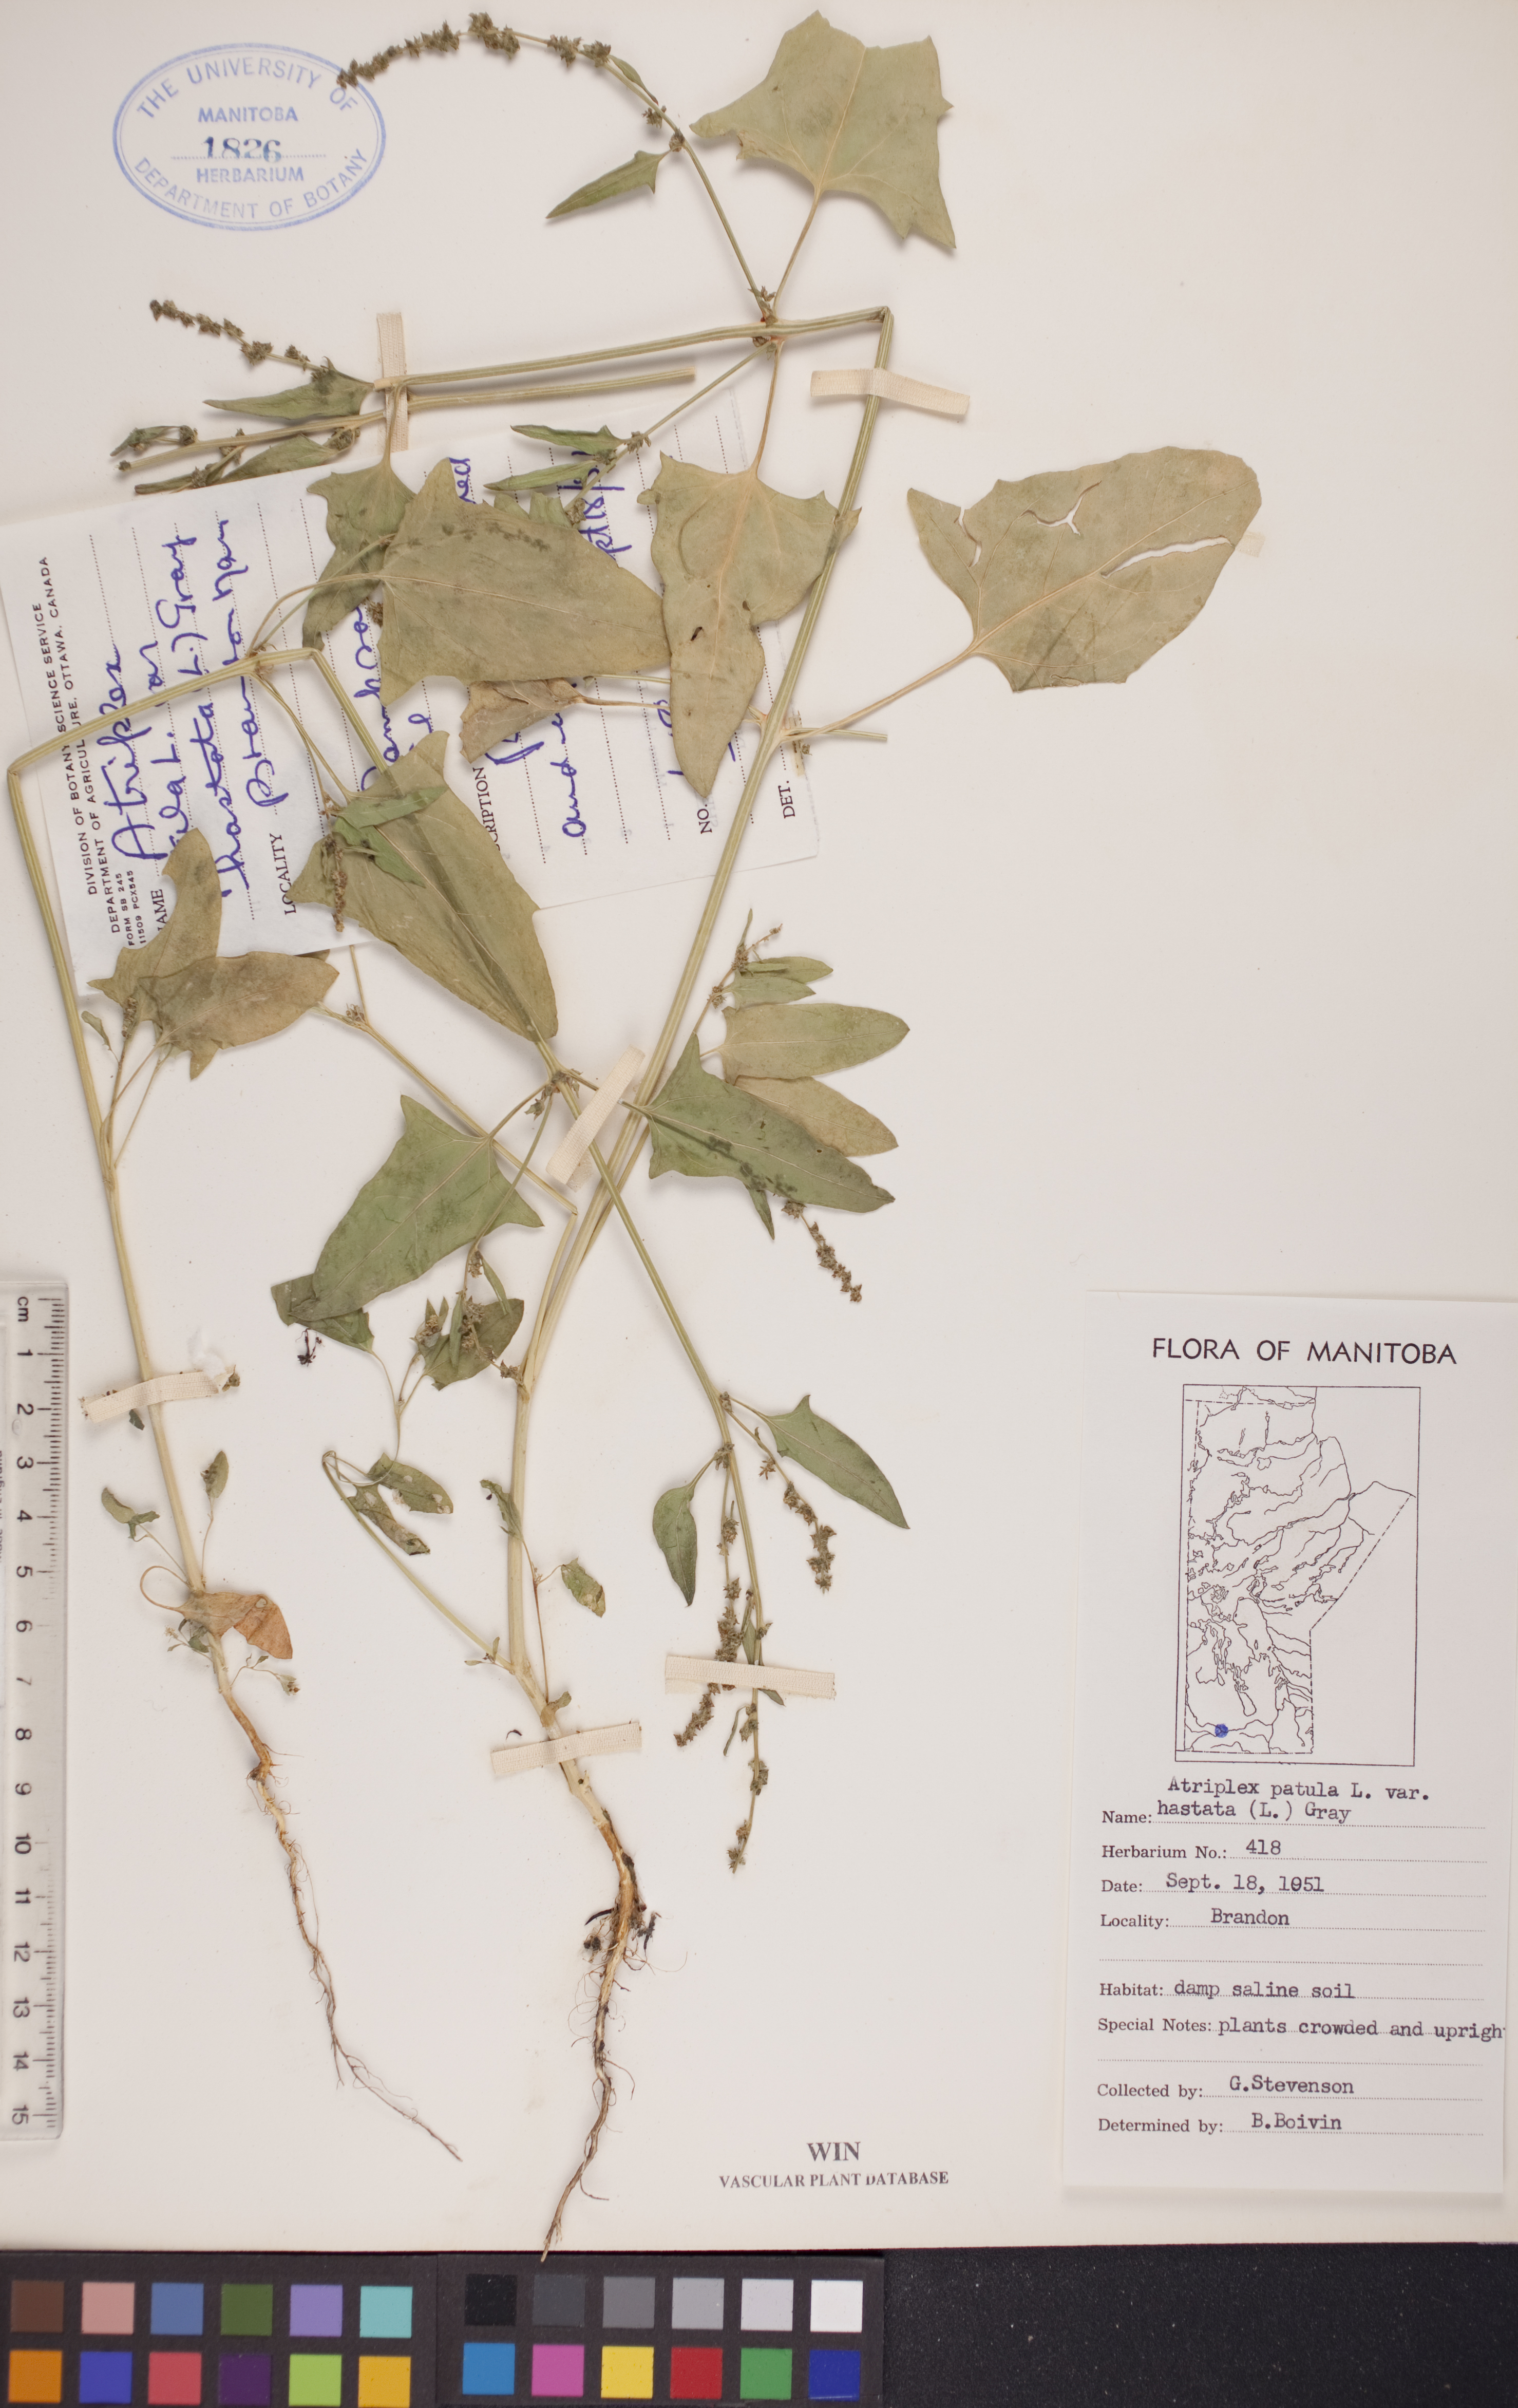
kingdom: Plantae
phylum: Tracheophyta
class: Magnoliopsida
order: Caryophyllales
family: Amaranthaceae
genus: Atriplex
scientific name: Atriplex
